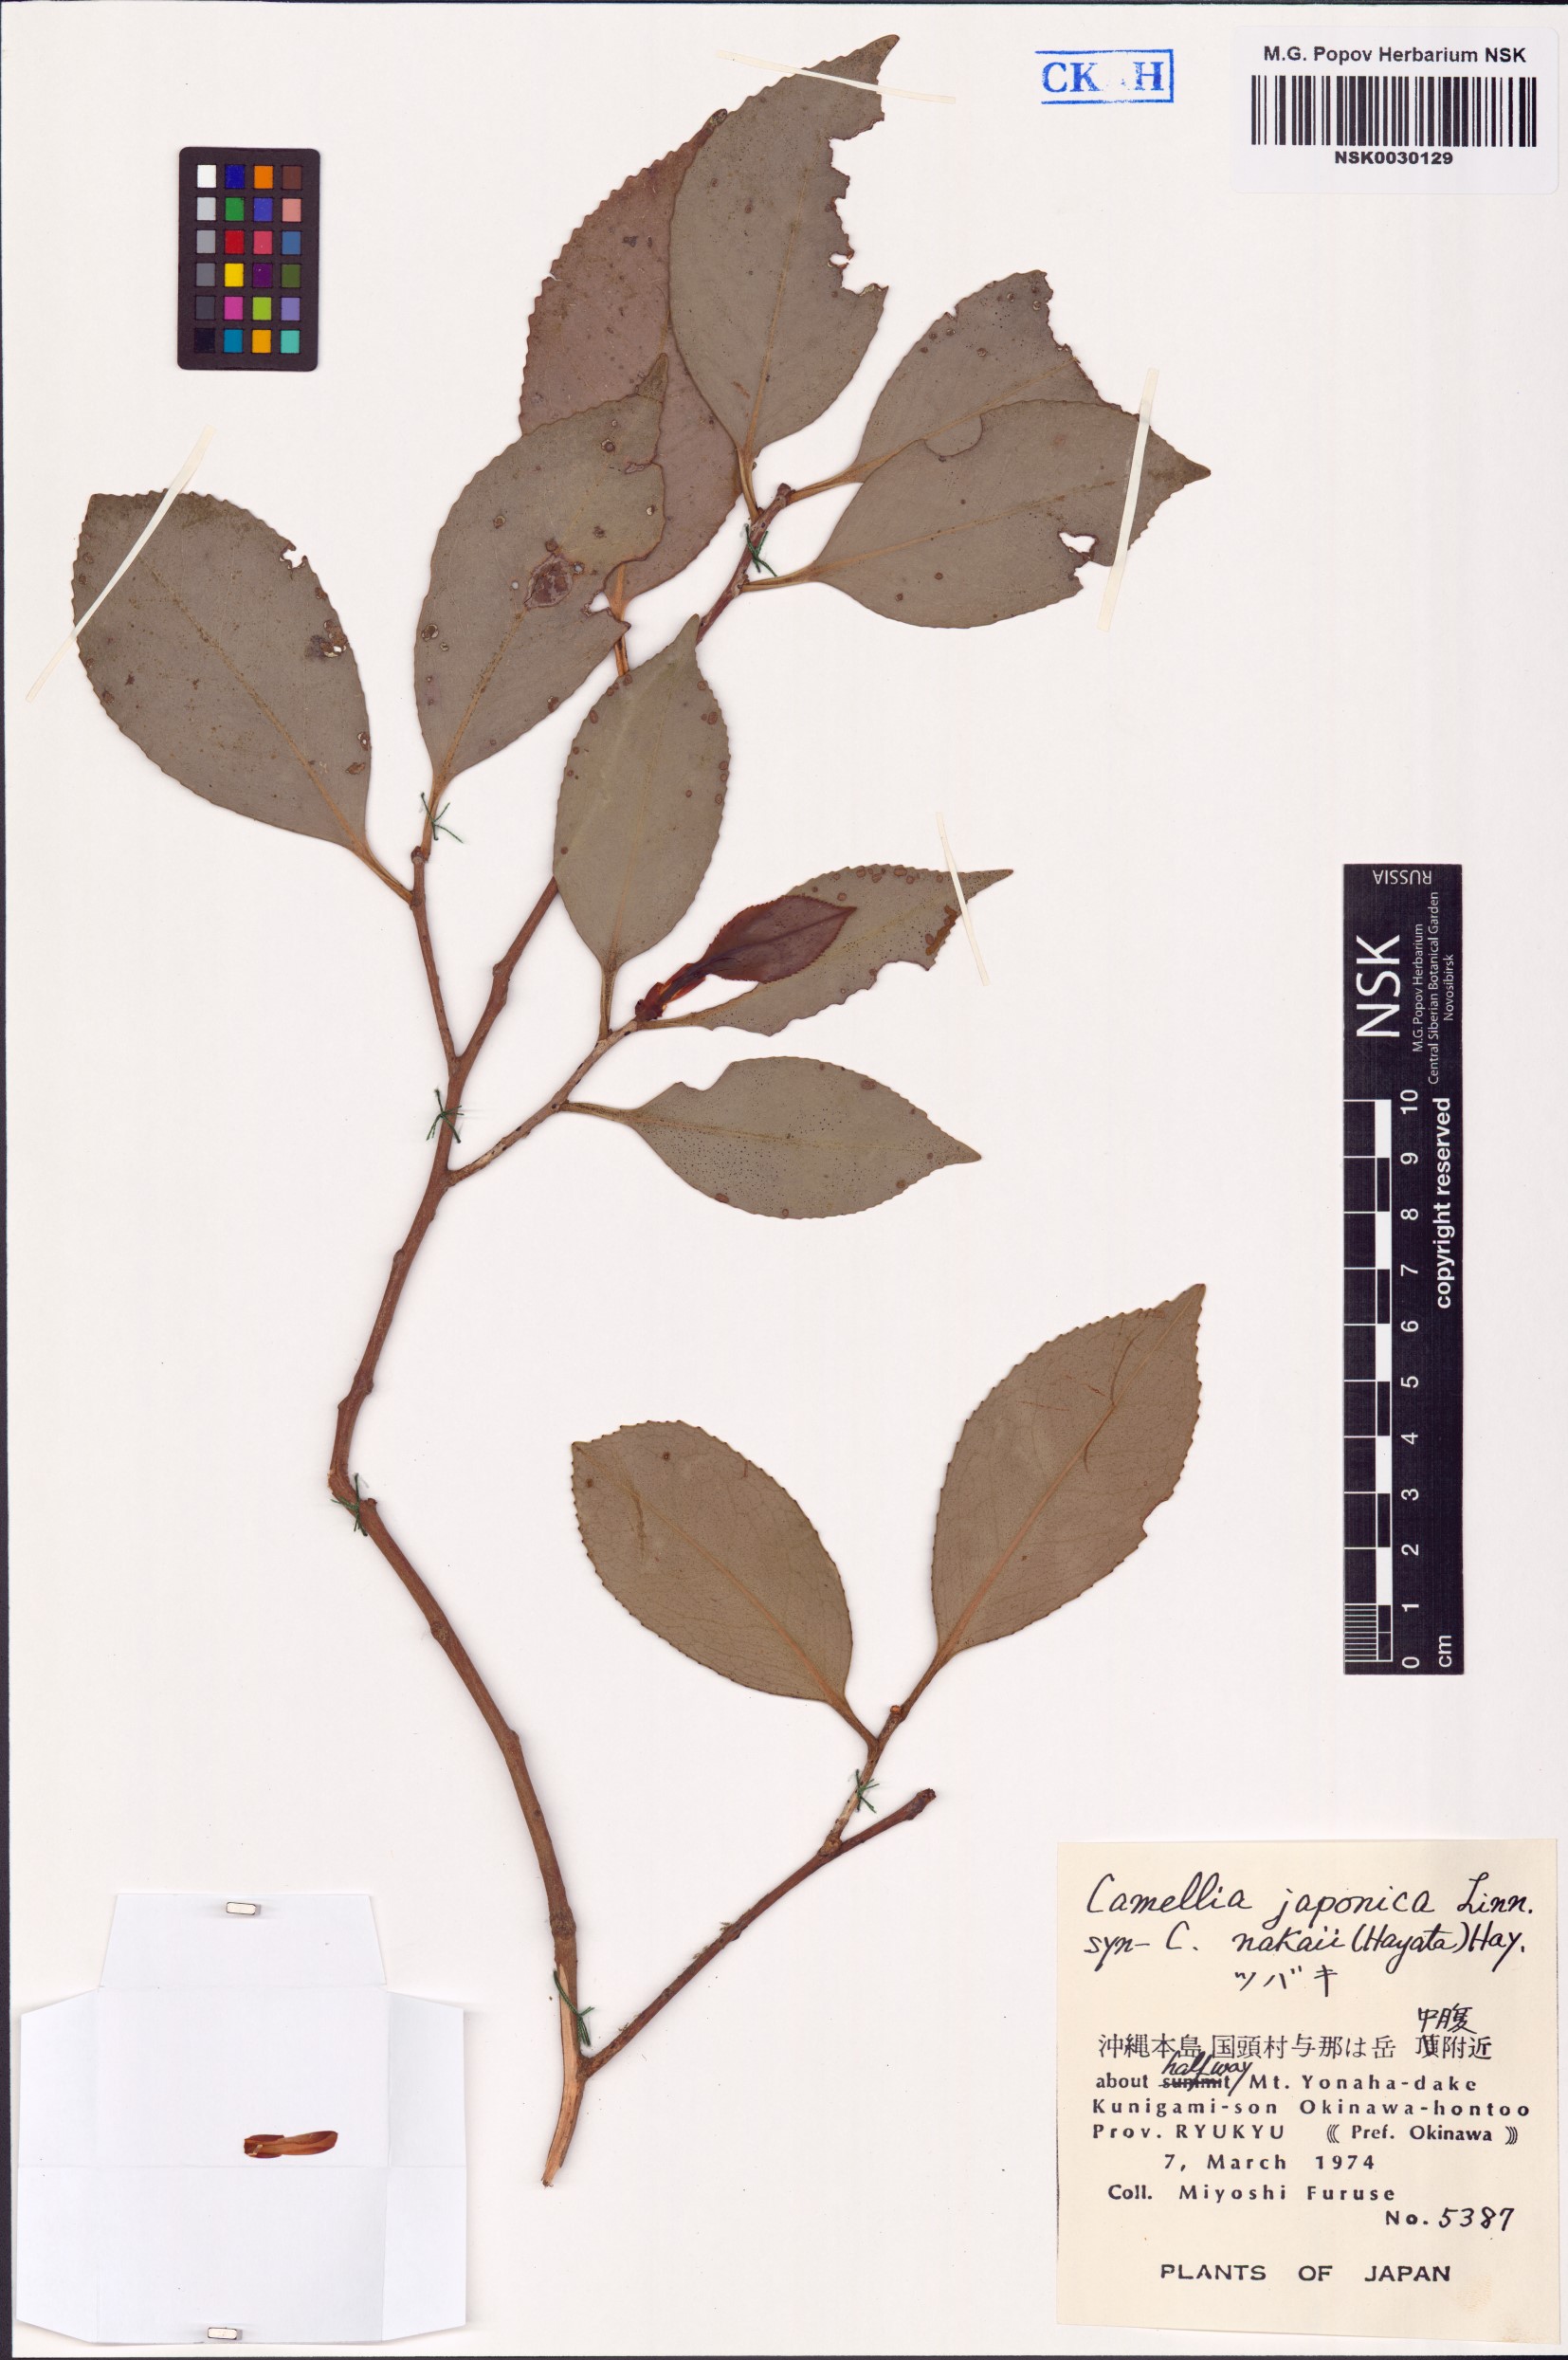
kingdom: Plantae
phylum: Tracheophyta
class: Magnoliopsida
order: Ericales
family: Theaceae
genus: Camellia
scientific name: Camellia japonica
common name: Camellia
